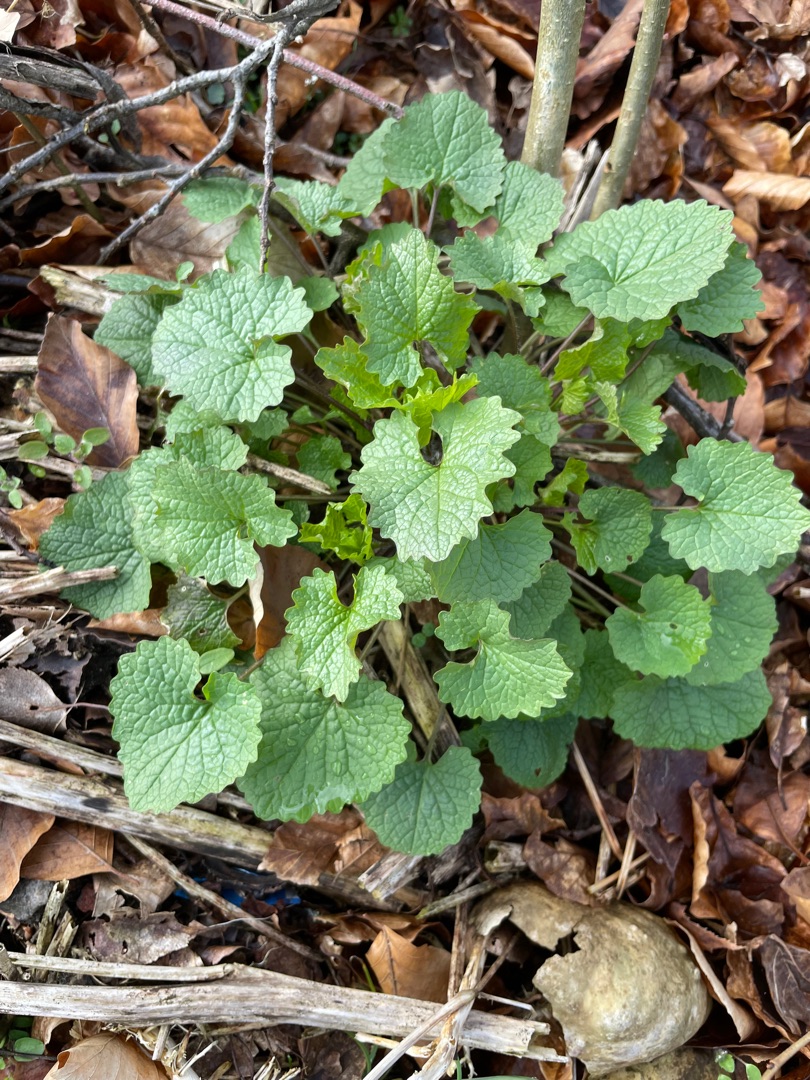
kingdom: Plantae
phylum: Tracheophyta
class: Magnoliopsida
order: Brassicales
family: Brassicaceae
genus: Alliaria
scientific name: Alliaria petiolata
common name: Løgkarse
